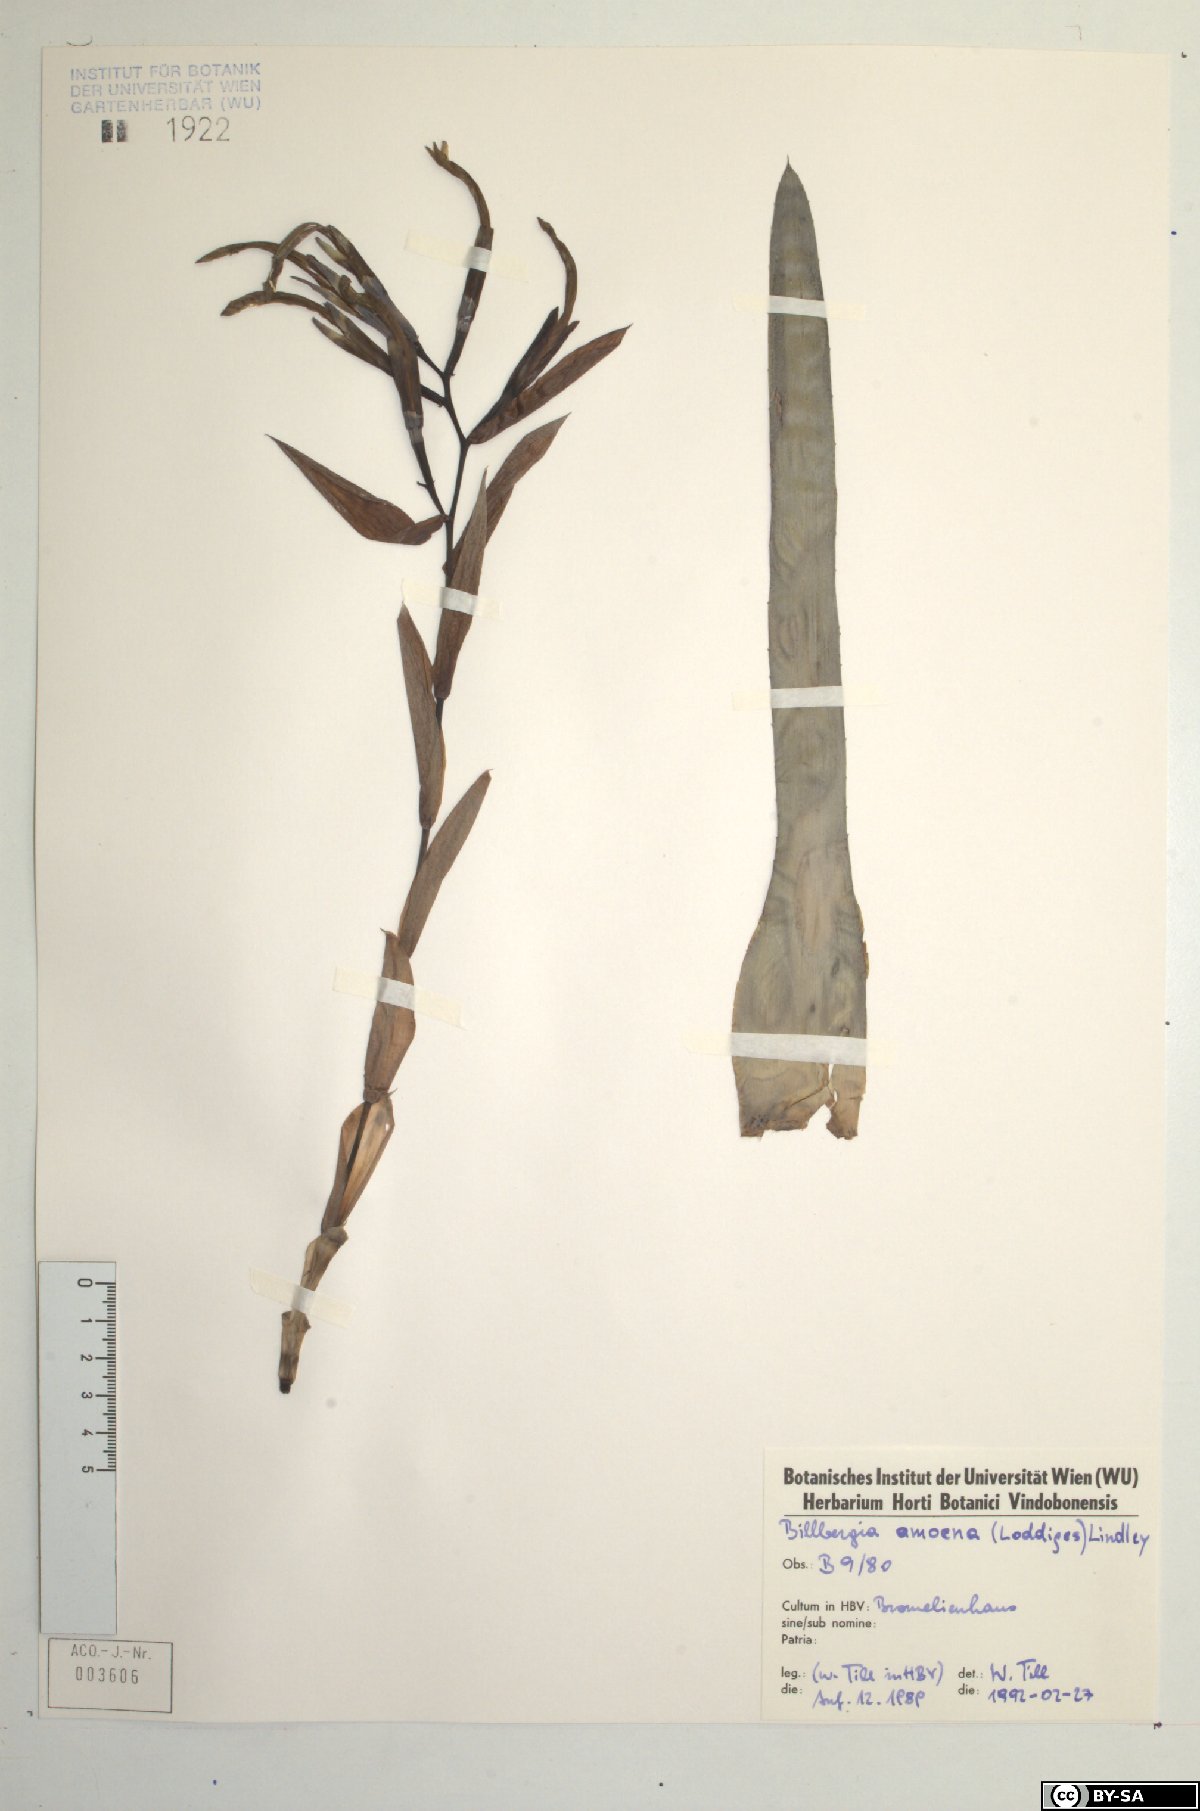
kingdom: Plantae
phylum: Tracheophyta
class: Liliopsida
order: Poales
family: Bromeliaceae
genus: Billbergia
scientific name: Billbergia amoena
